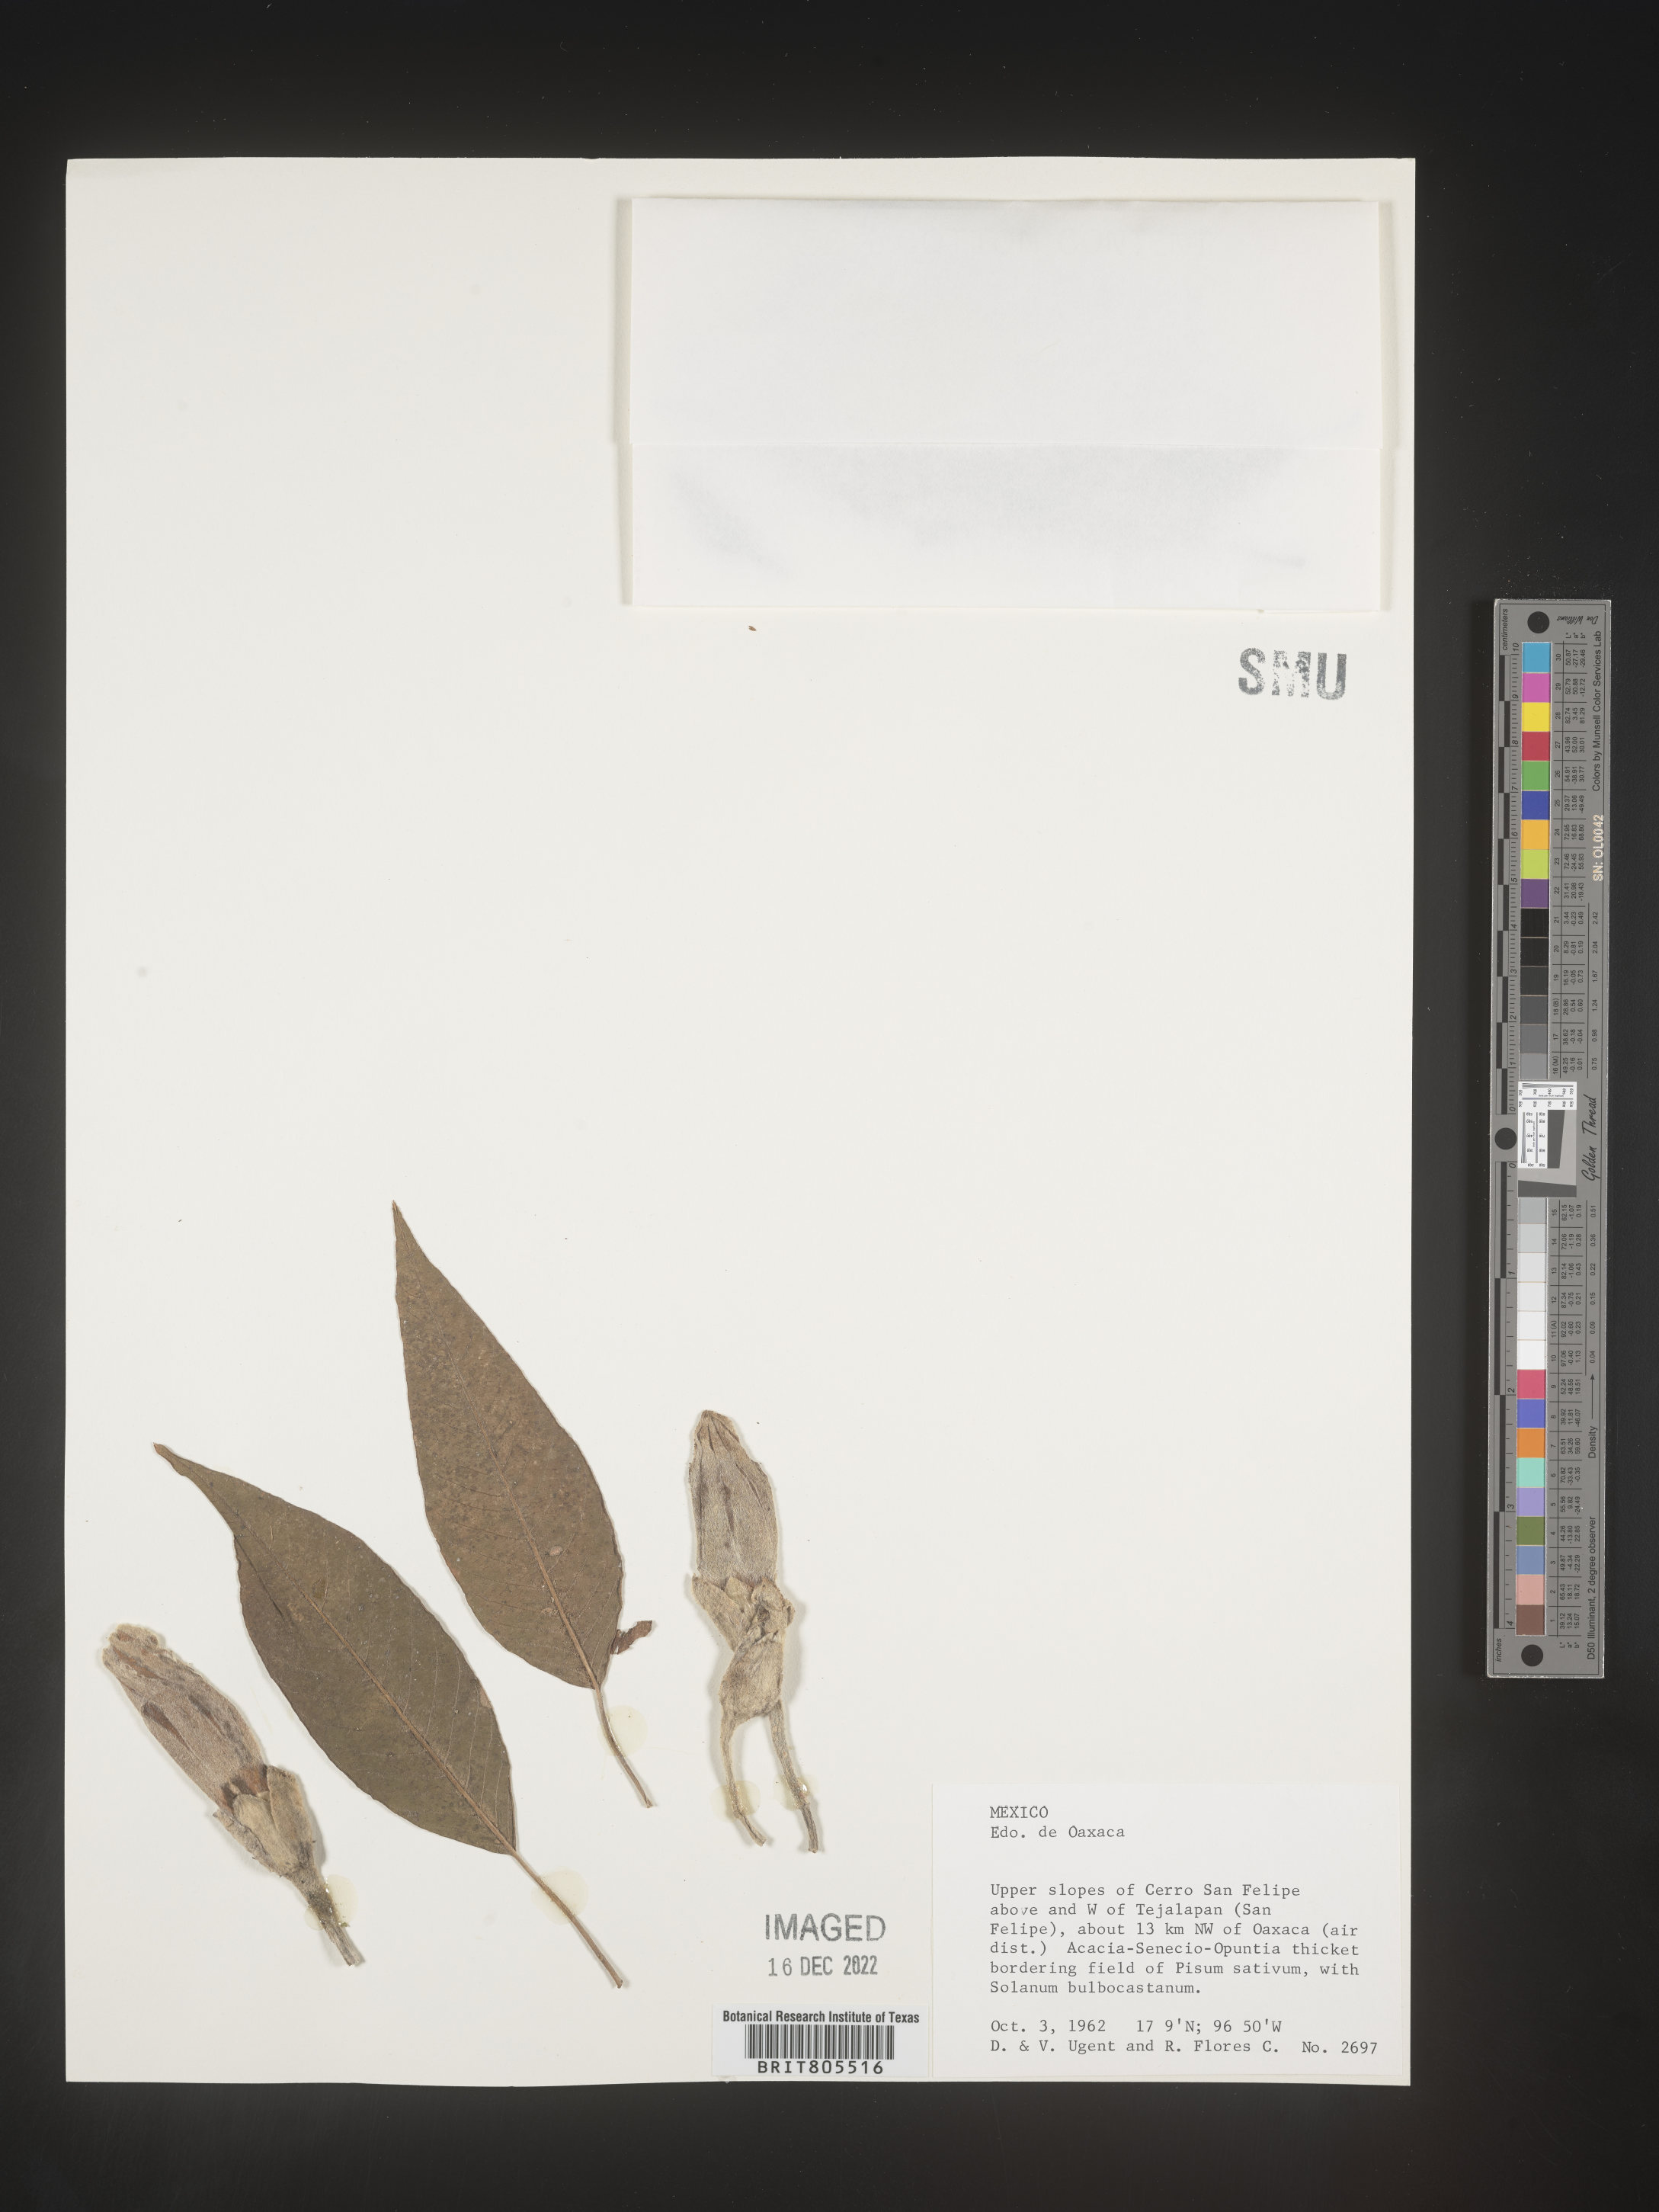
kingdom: Plantae
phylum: Tracheophyta
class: Magnoliopsida
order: Solanales
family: Convolvulaceae
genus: Ipomoea
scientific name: Ipomoea
